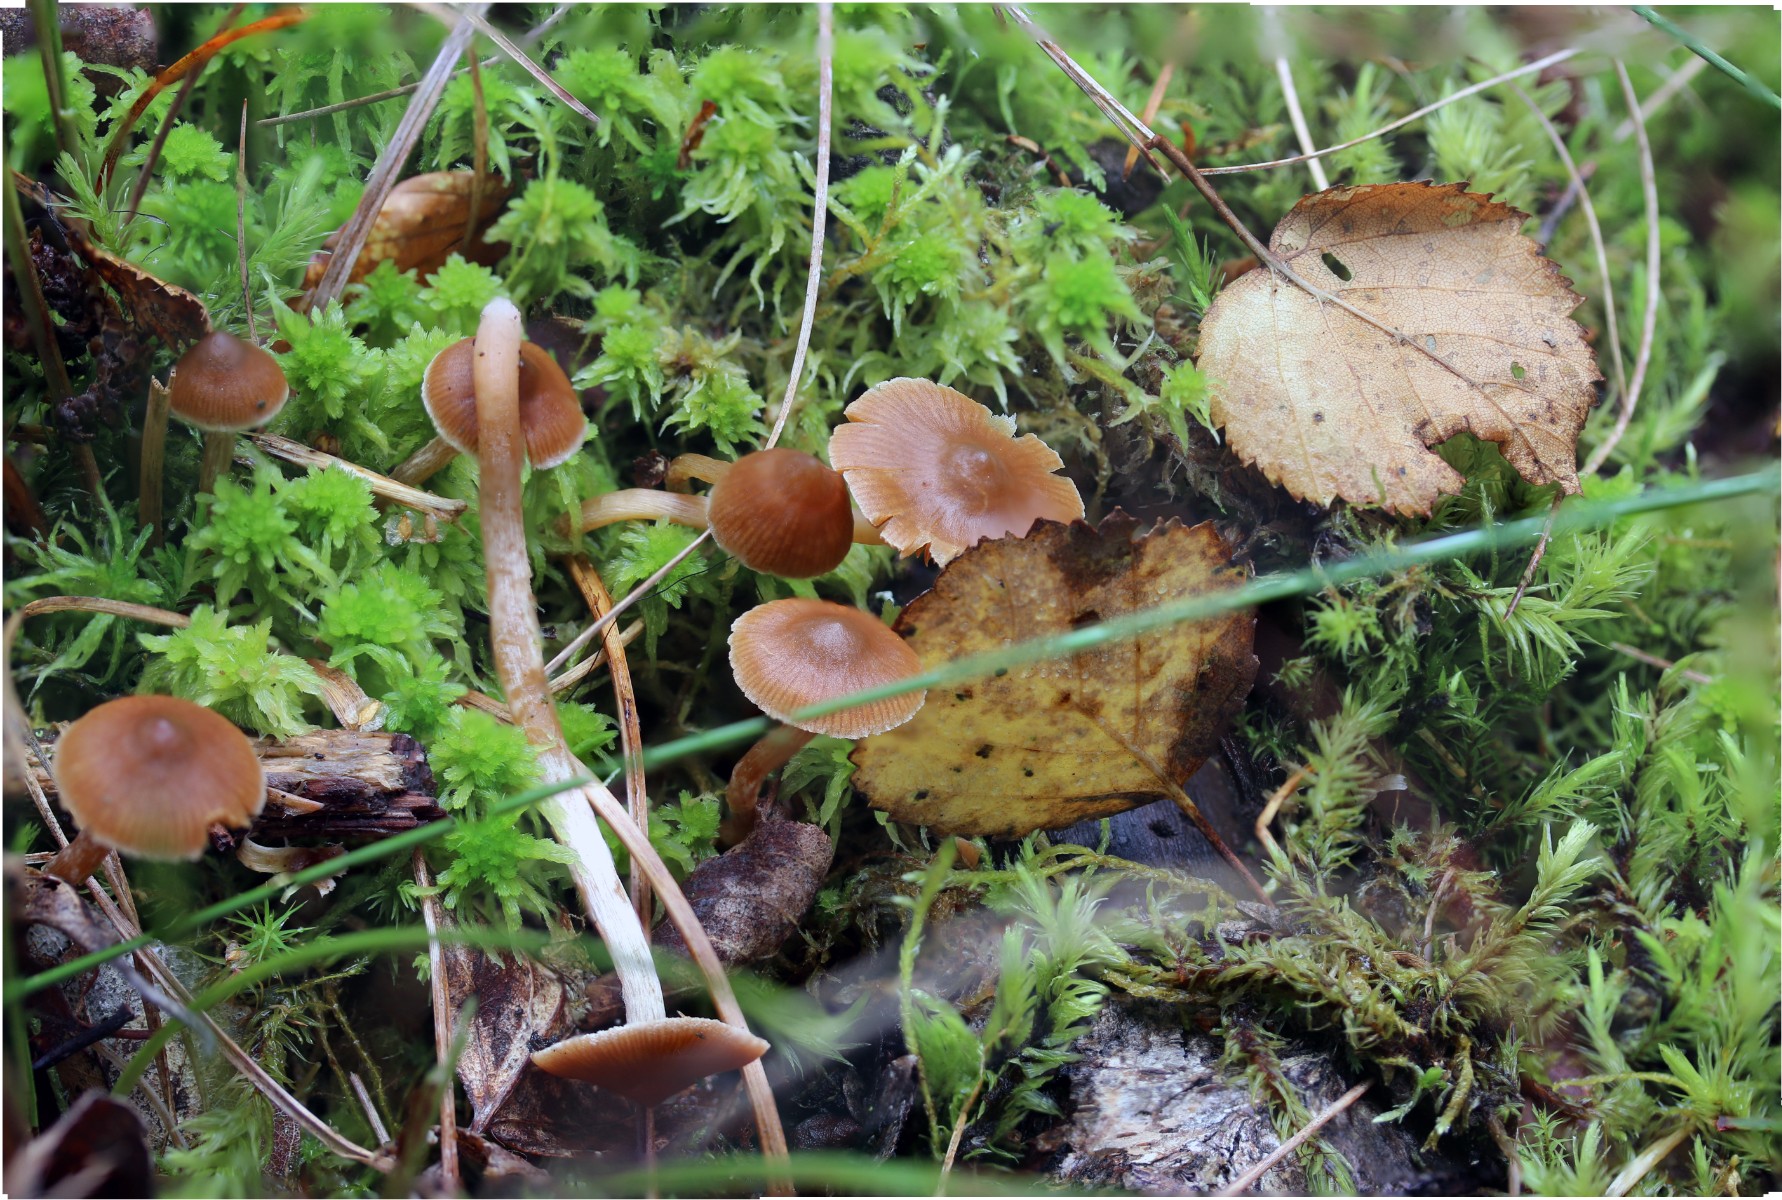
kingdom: Fungi
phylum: Basidiomycota
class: Agaricomycetes
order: Agaricales
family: Cortinariaceae
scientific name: Cortinariaceae
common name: slørhatfamilien
